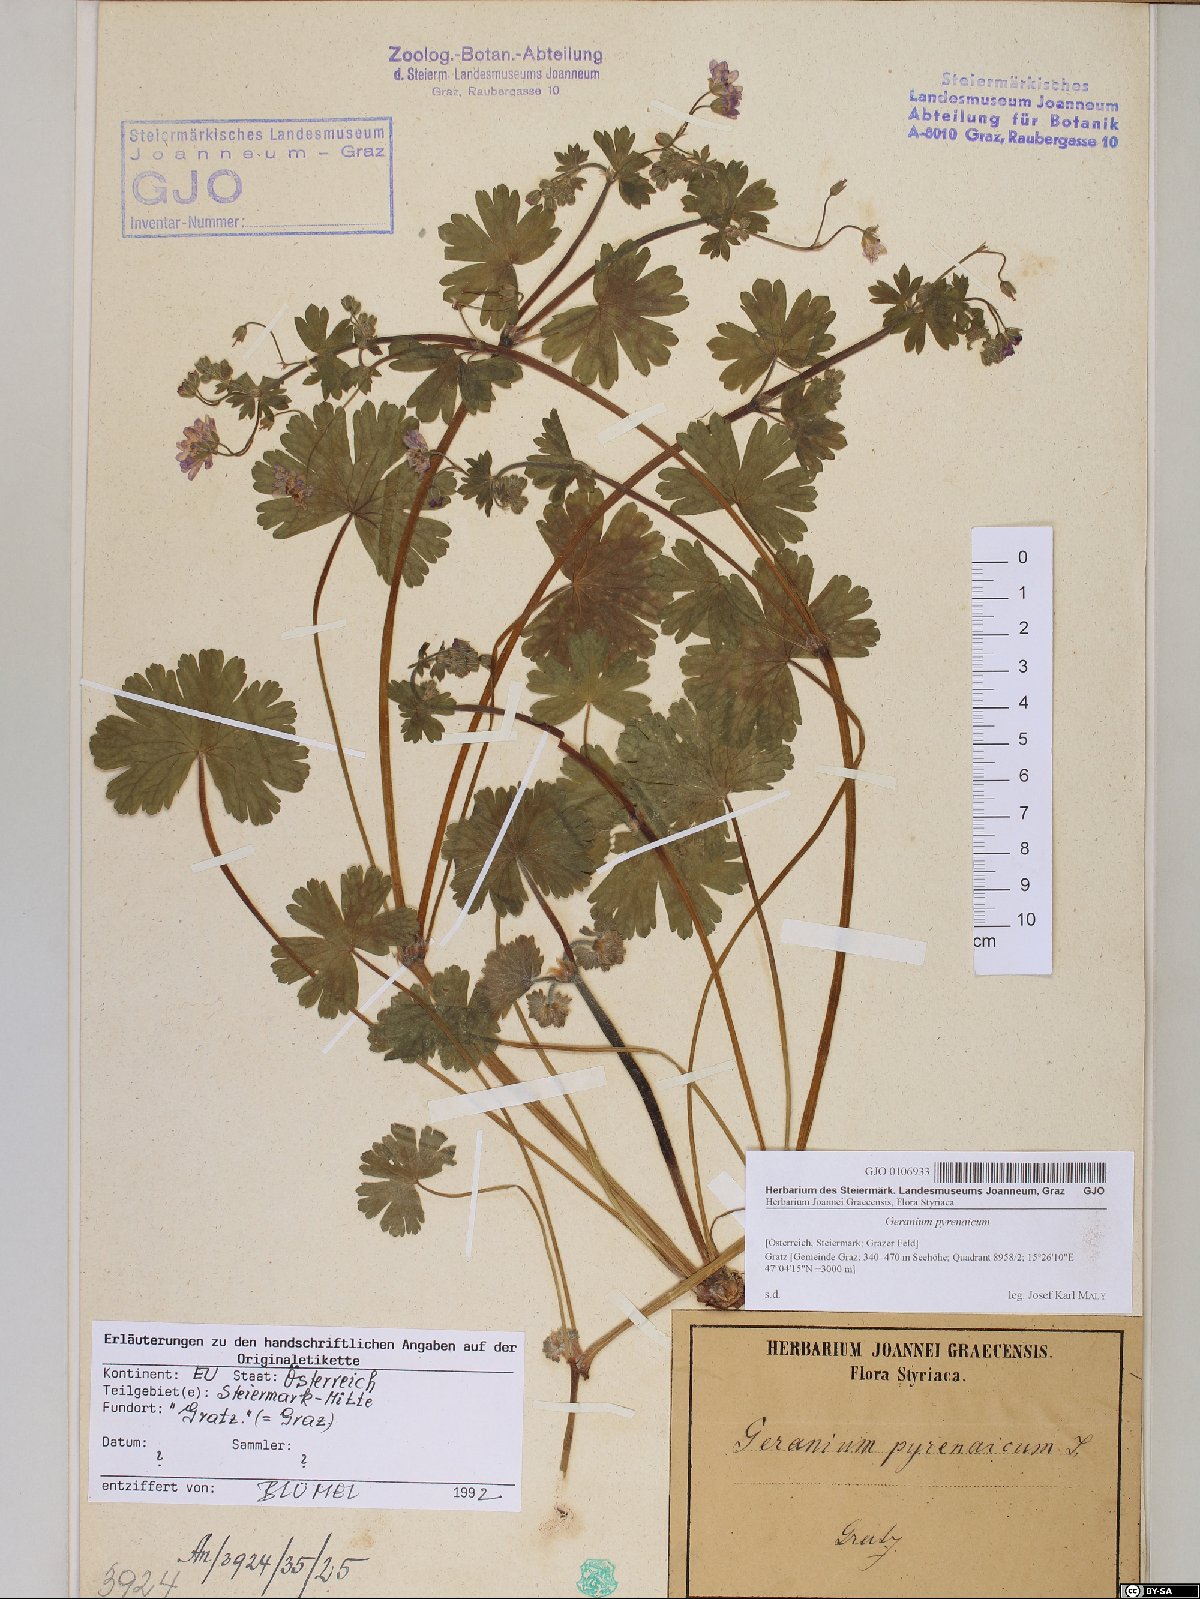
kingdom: Plantae
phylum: Tracheophyta
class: Magnoliopsida
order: Geraniales
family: Geraniaceae
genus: Geranium
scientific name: Geranium pyrenaicum
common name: Hedgerow crane's-bill
